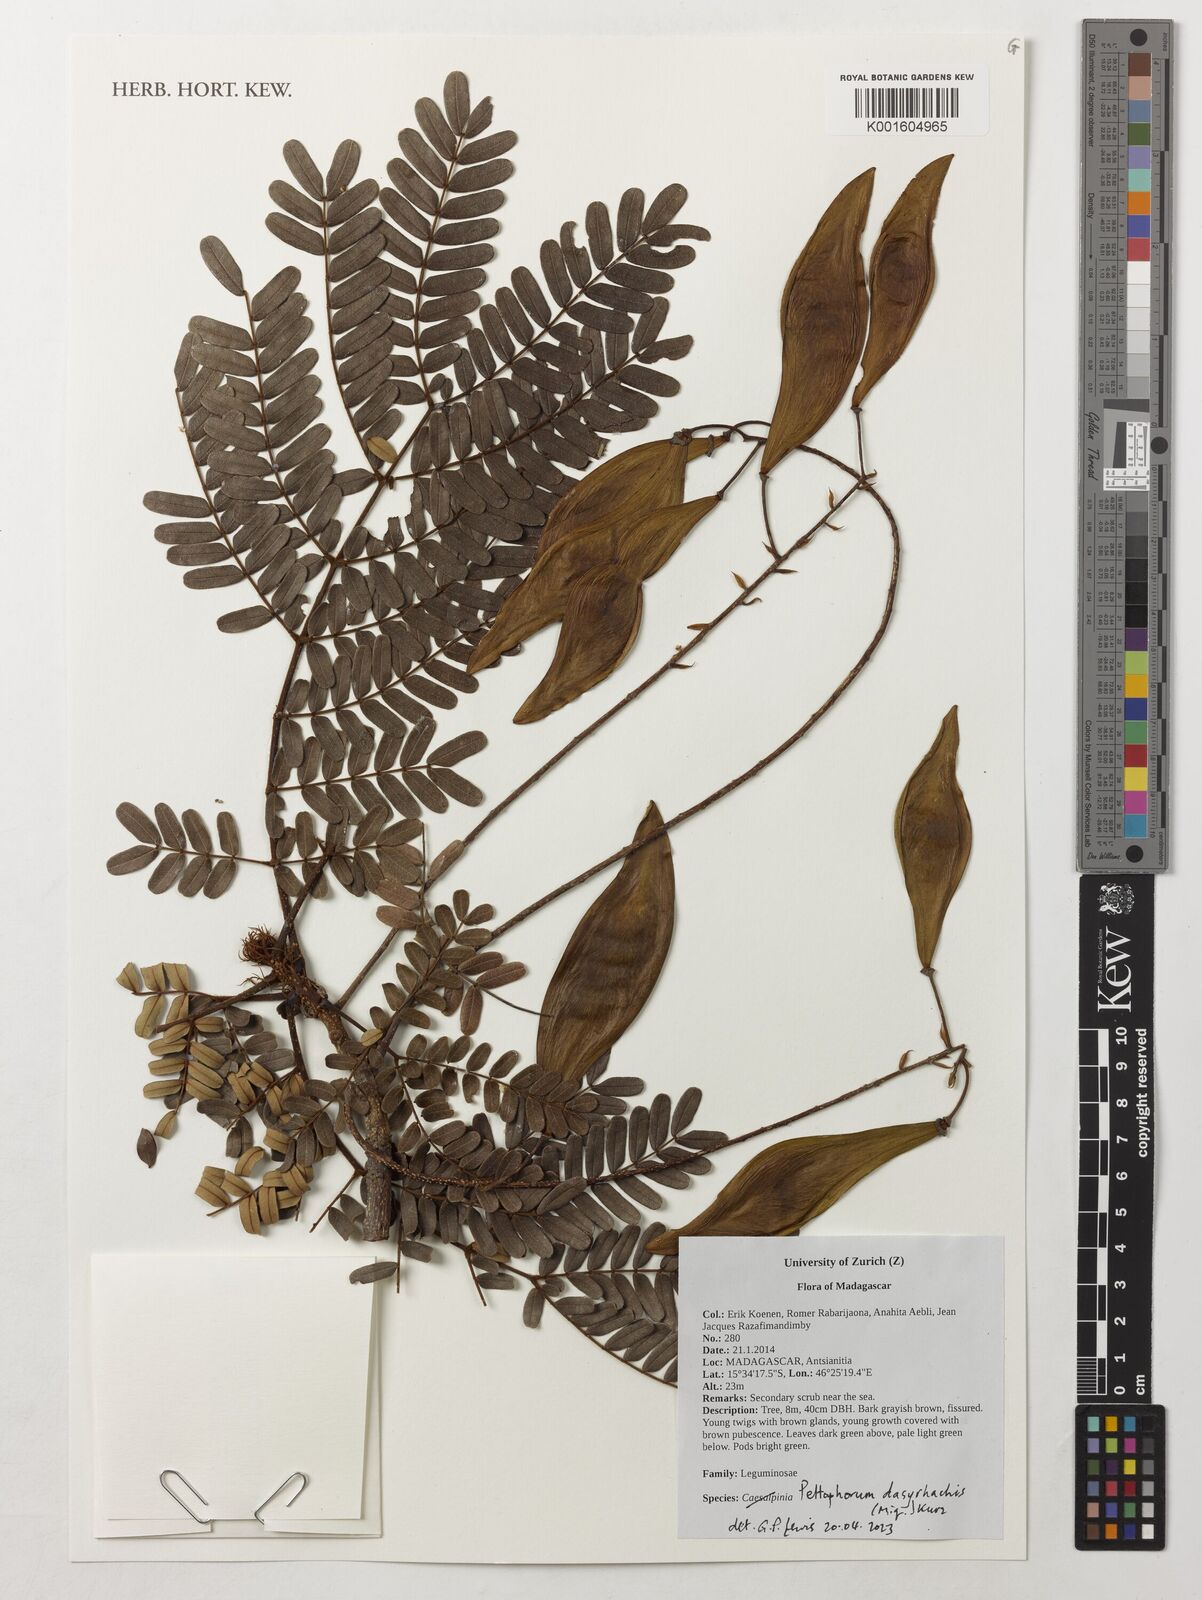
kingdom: Plantae
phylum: Tracheophyta
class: Magnoliopsida
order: Fabales
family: Fabaceae
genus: Peltophorum
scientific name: Peltophorum dasyrhachis
